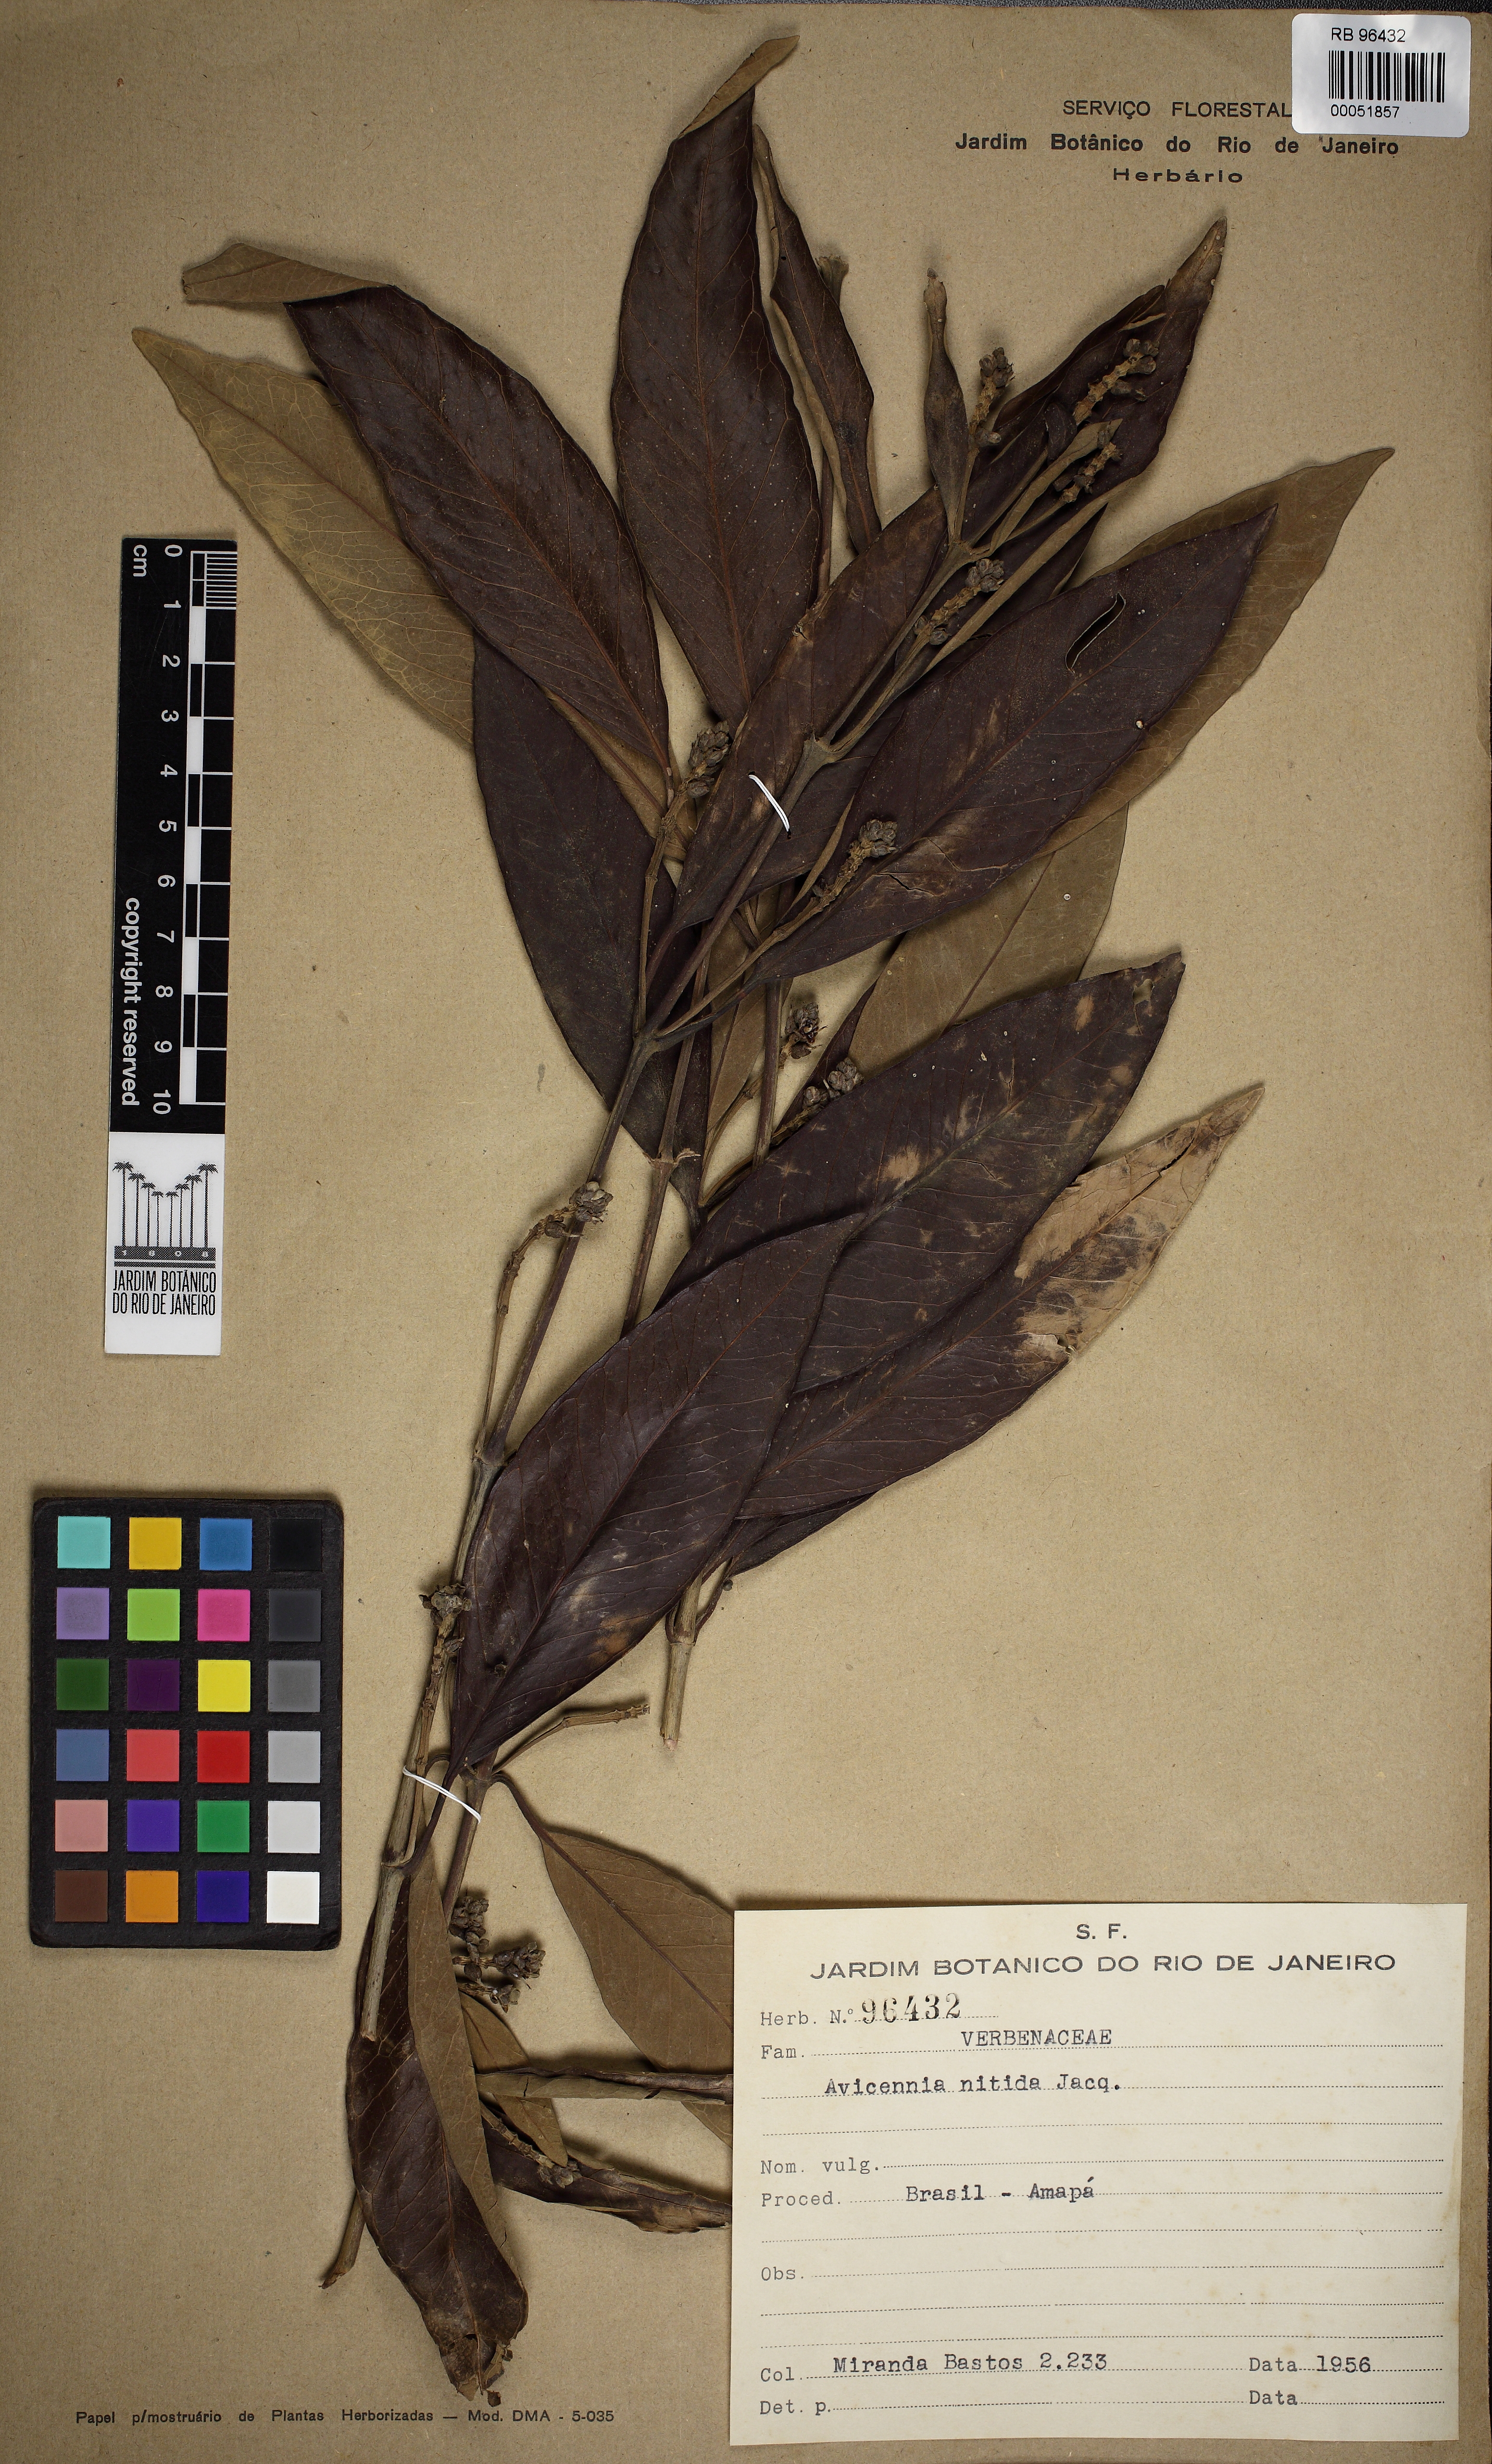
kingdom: Plantae
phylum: Tracheophyta
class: Magnoliopsida
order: Lamiales
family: Acanthaceae
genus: Avicennia
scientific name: Avicennia germinans
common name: Black mangrove
